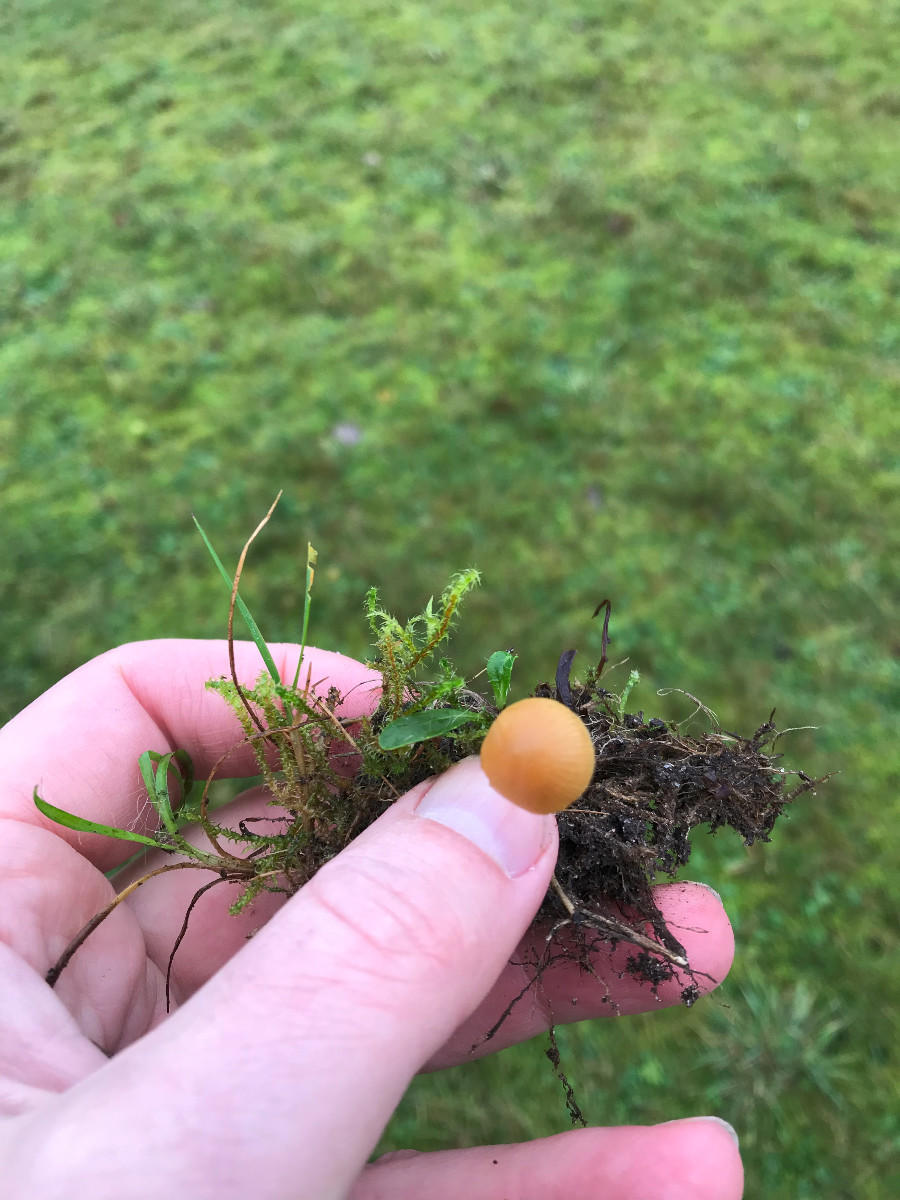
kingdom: Fungi
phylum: Basidiomycota
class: Agaricomycetes
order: Agaricales
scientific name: Agaricales
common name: champignonordenen
